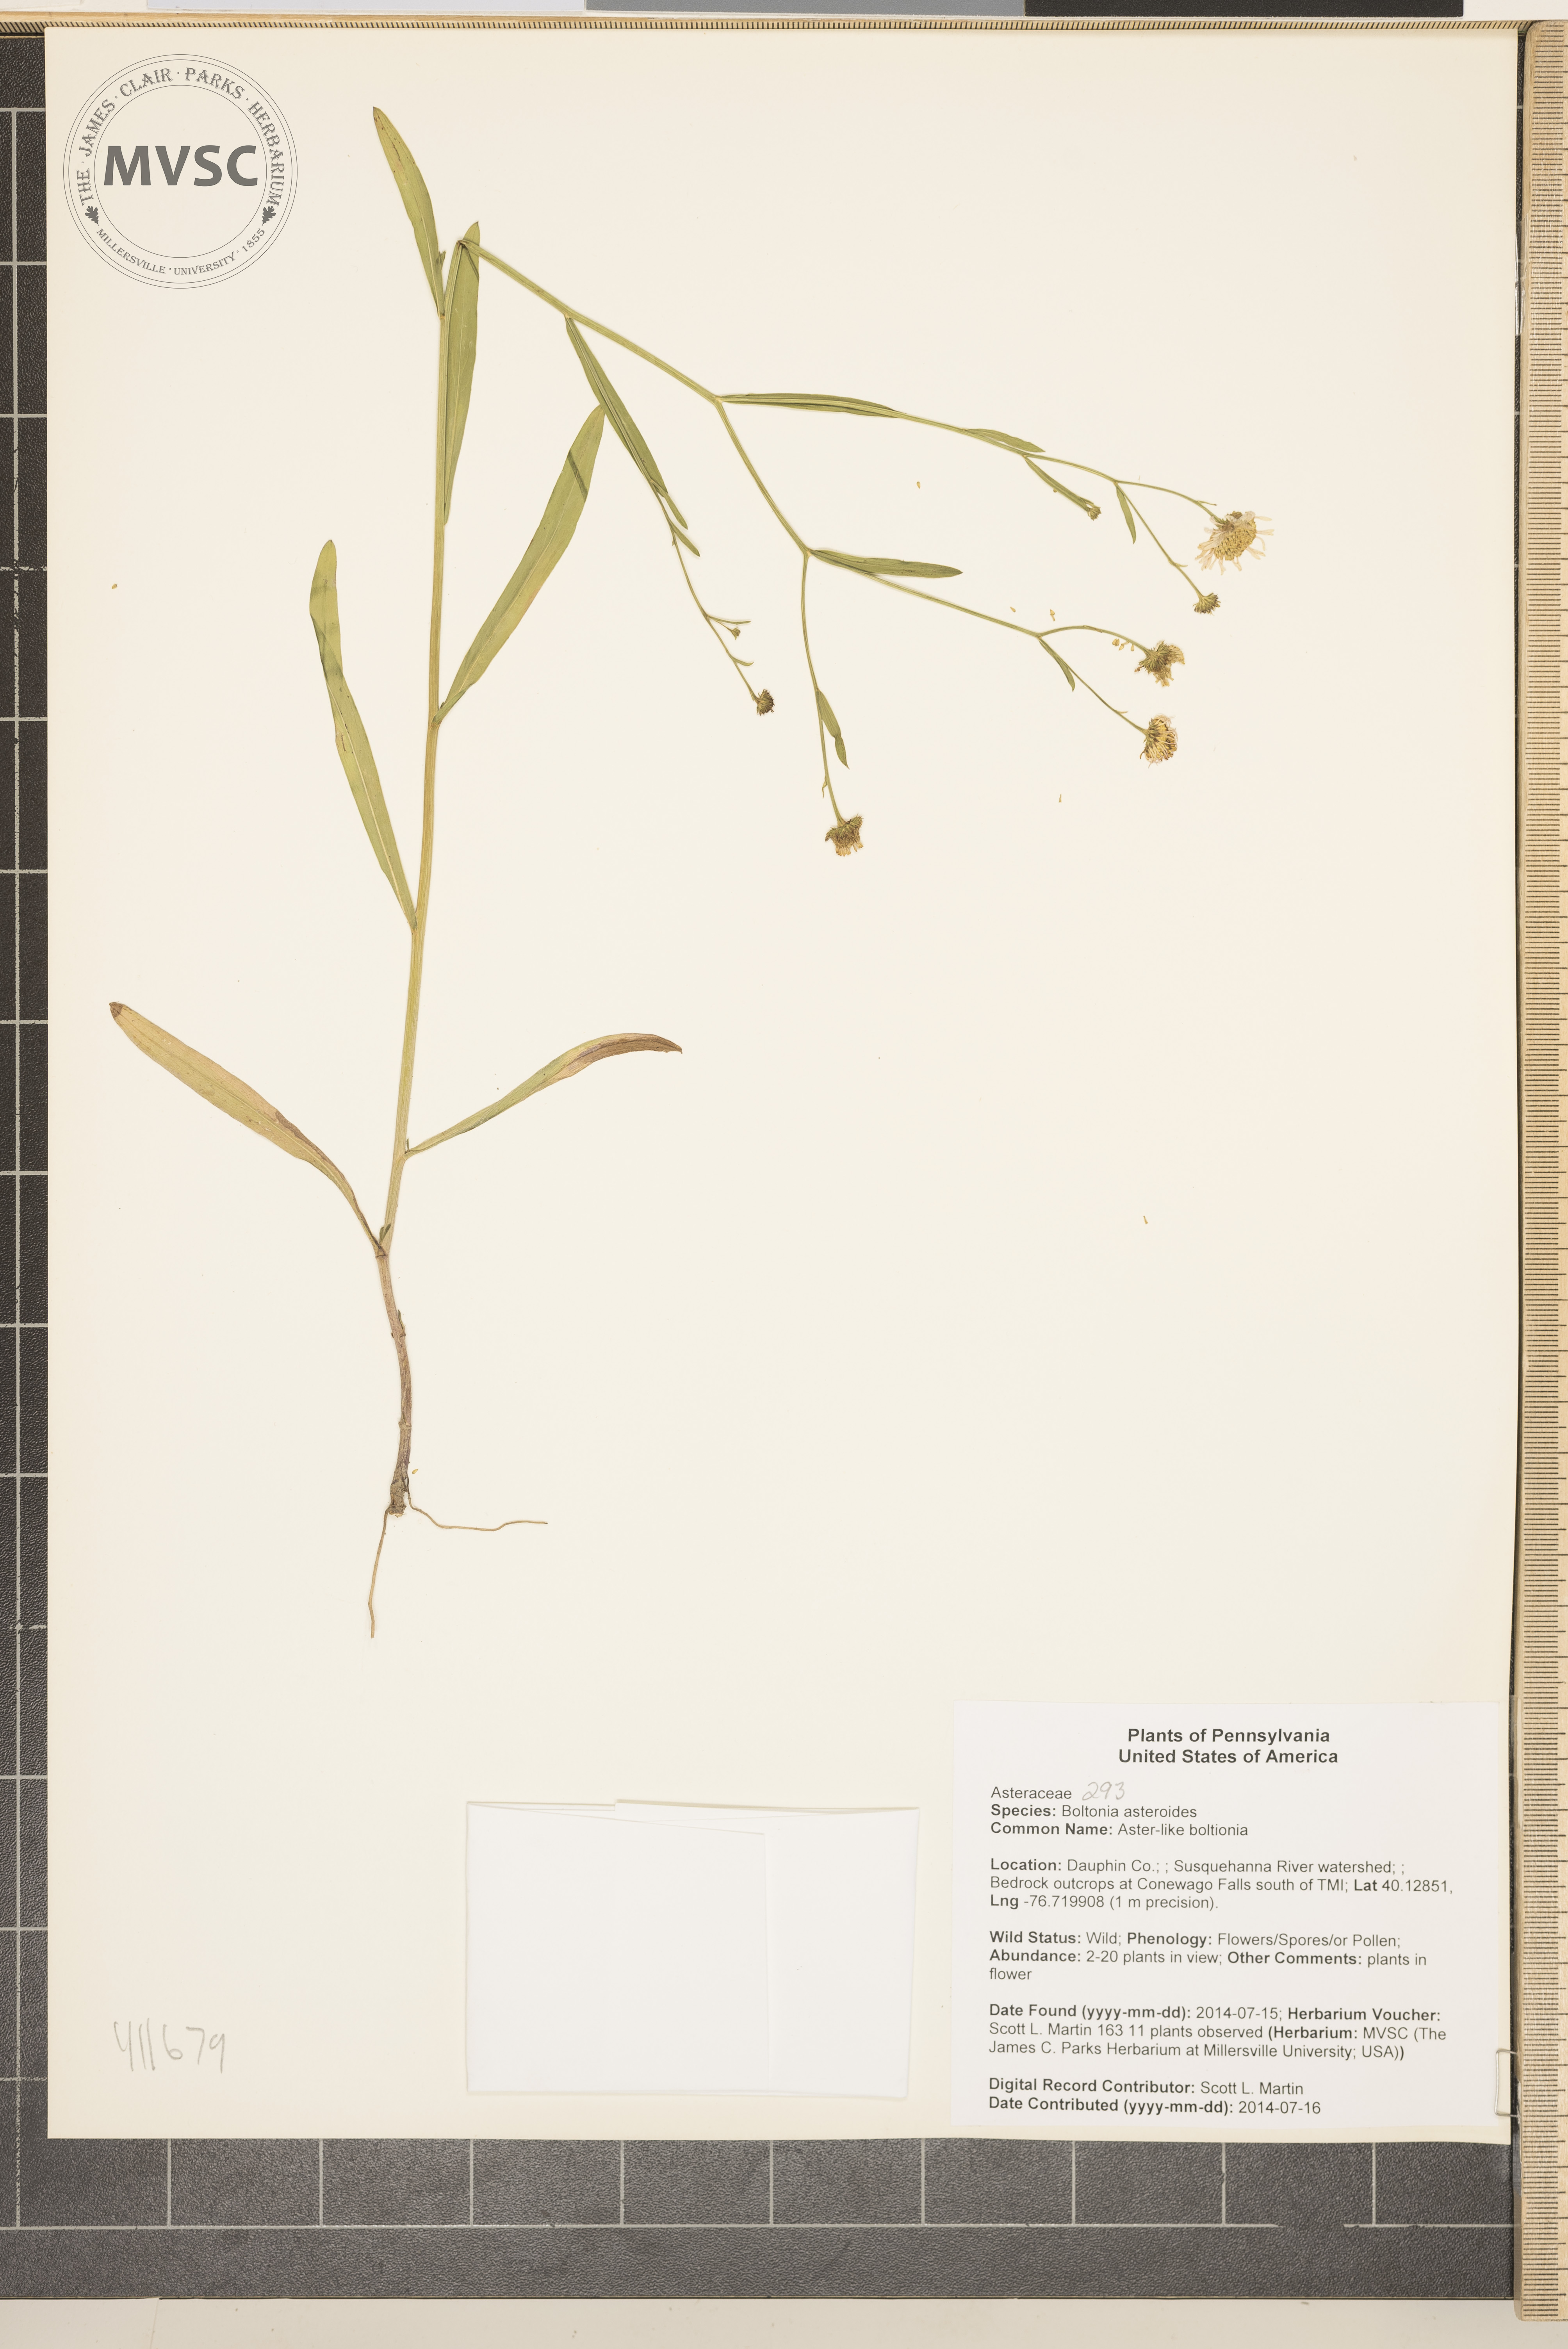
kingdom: Plantae
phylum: Tracheophyta
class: Magnoliopsida
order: Asterales
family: Asteraceae
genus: Boltonia
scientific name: Boltonia asteroides
